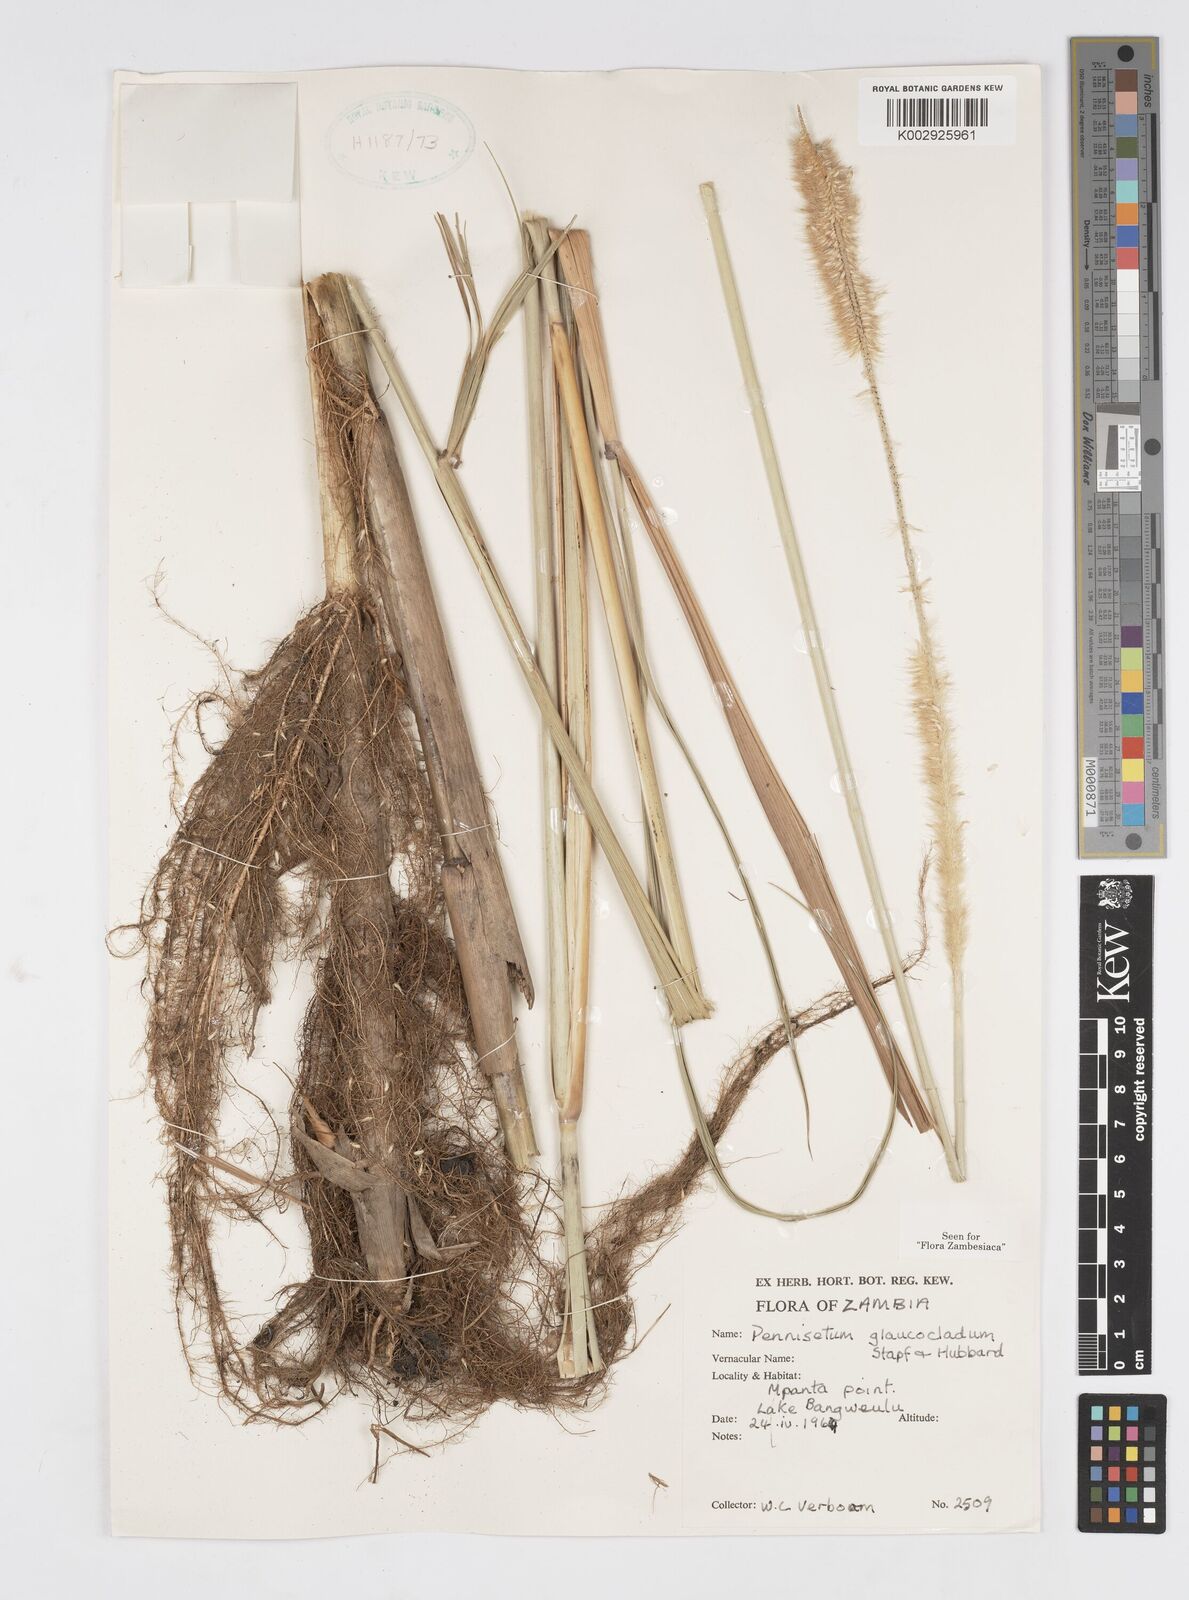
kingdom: Plantae
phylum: Tracheophyta
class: Liliopsida
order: Poales
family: Poaceae
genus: Cenchrus
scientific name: Cenchrus caudatus
